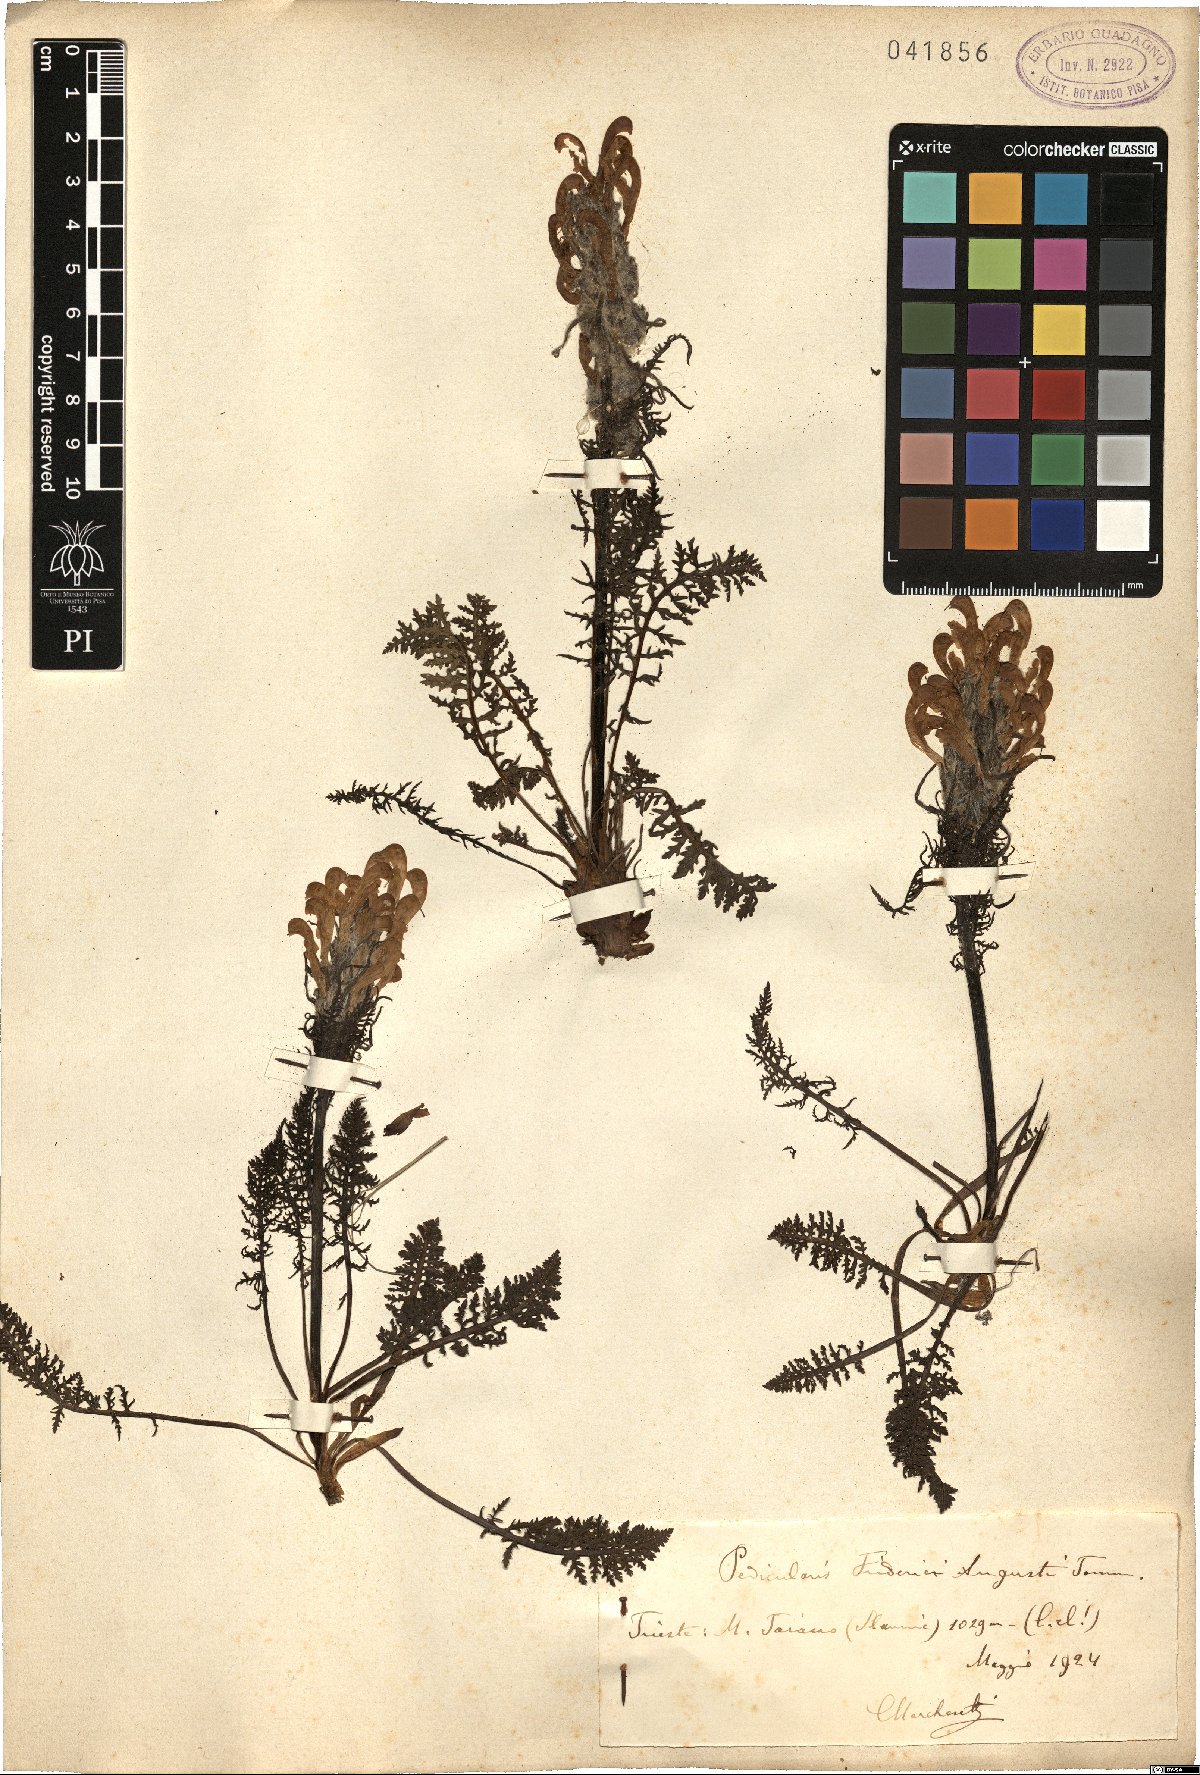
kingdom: Plantae
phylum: Tracheophyta
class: Magnoliopsida
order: Lamiales
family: Orobanchaceae
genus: Pedicularis
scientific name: Pedicularis friderici-augusti
